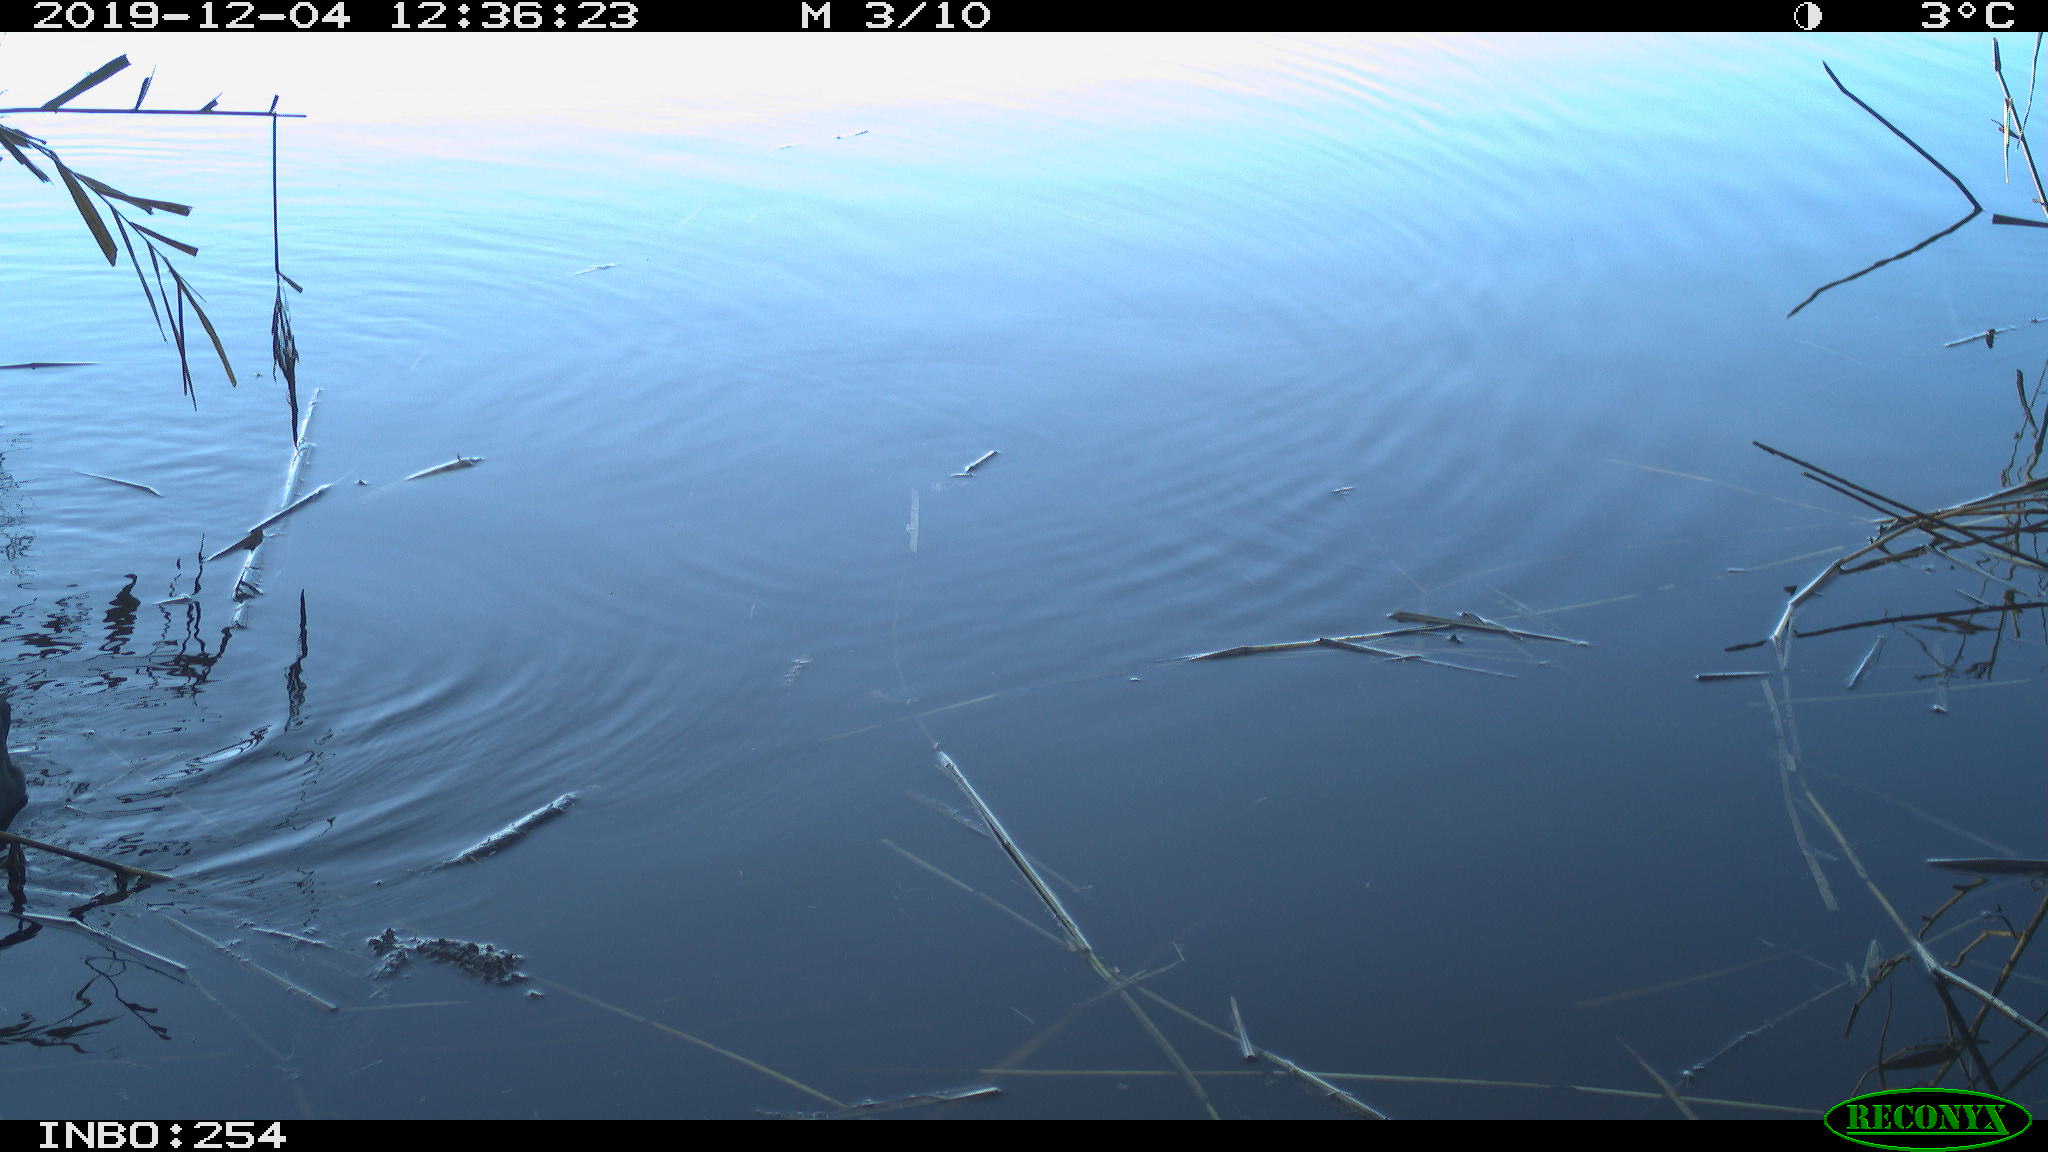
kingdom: Animalia
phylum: Chordata
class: Aves
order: Gruiformes
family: Rallidae
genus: Gallinula
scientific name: Gallinula chloropus
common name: Common moorhen
